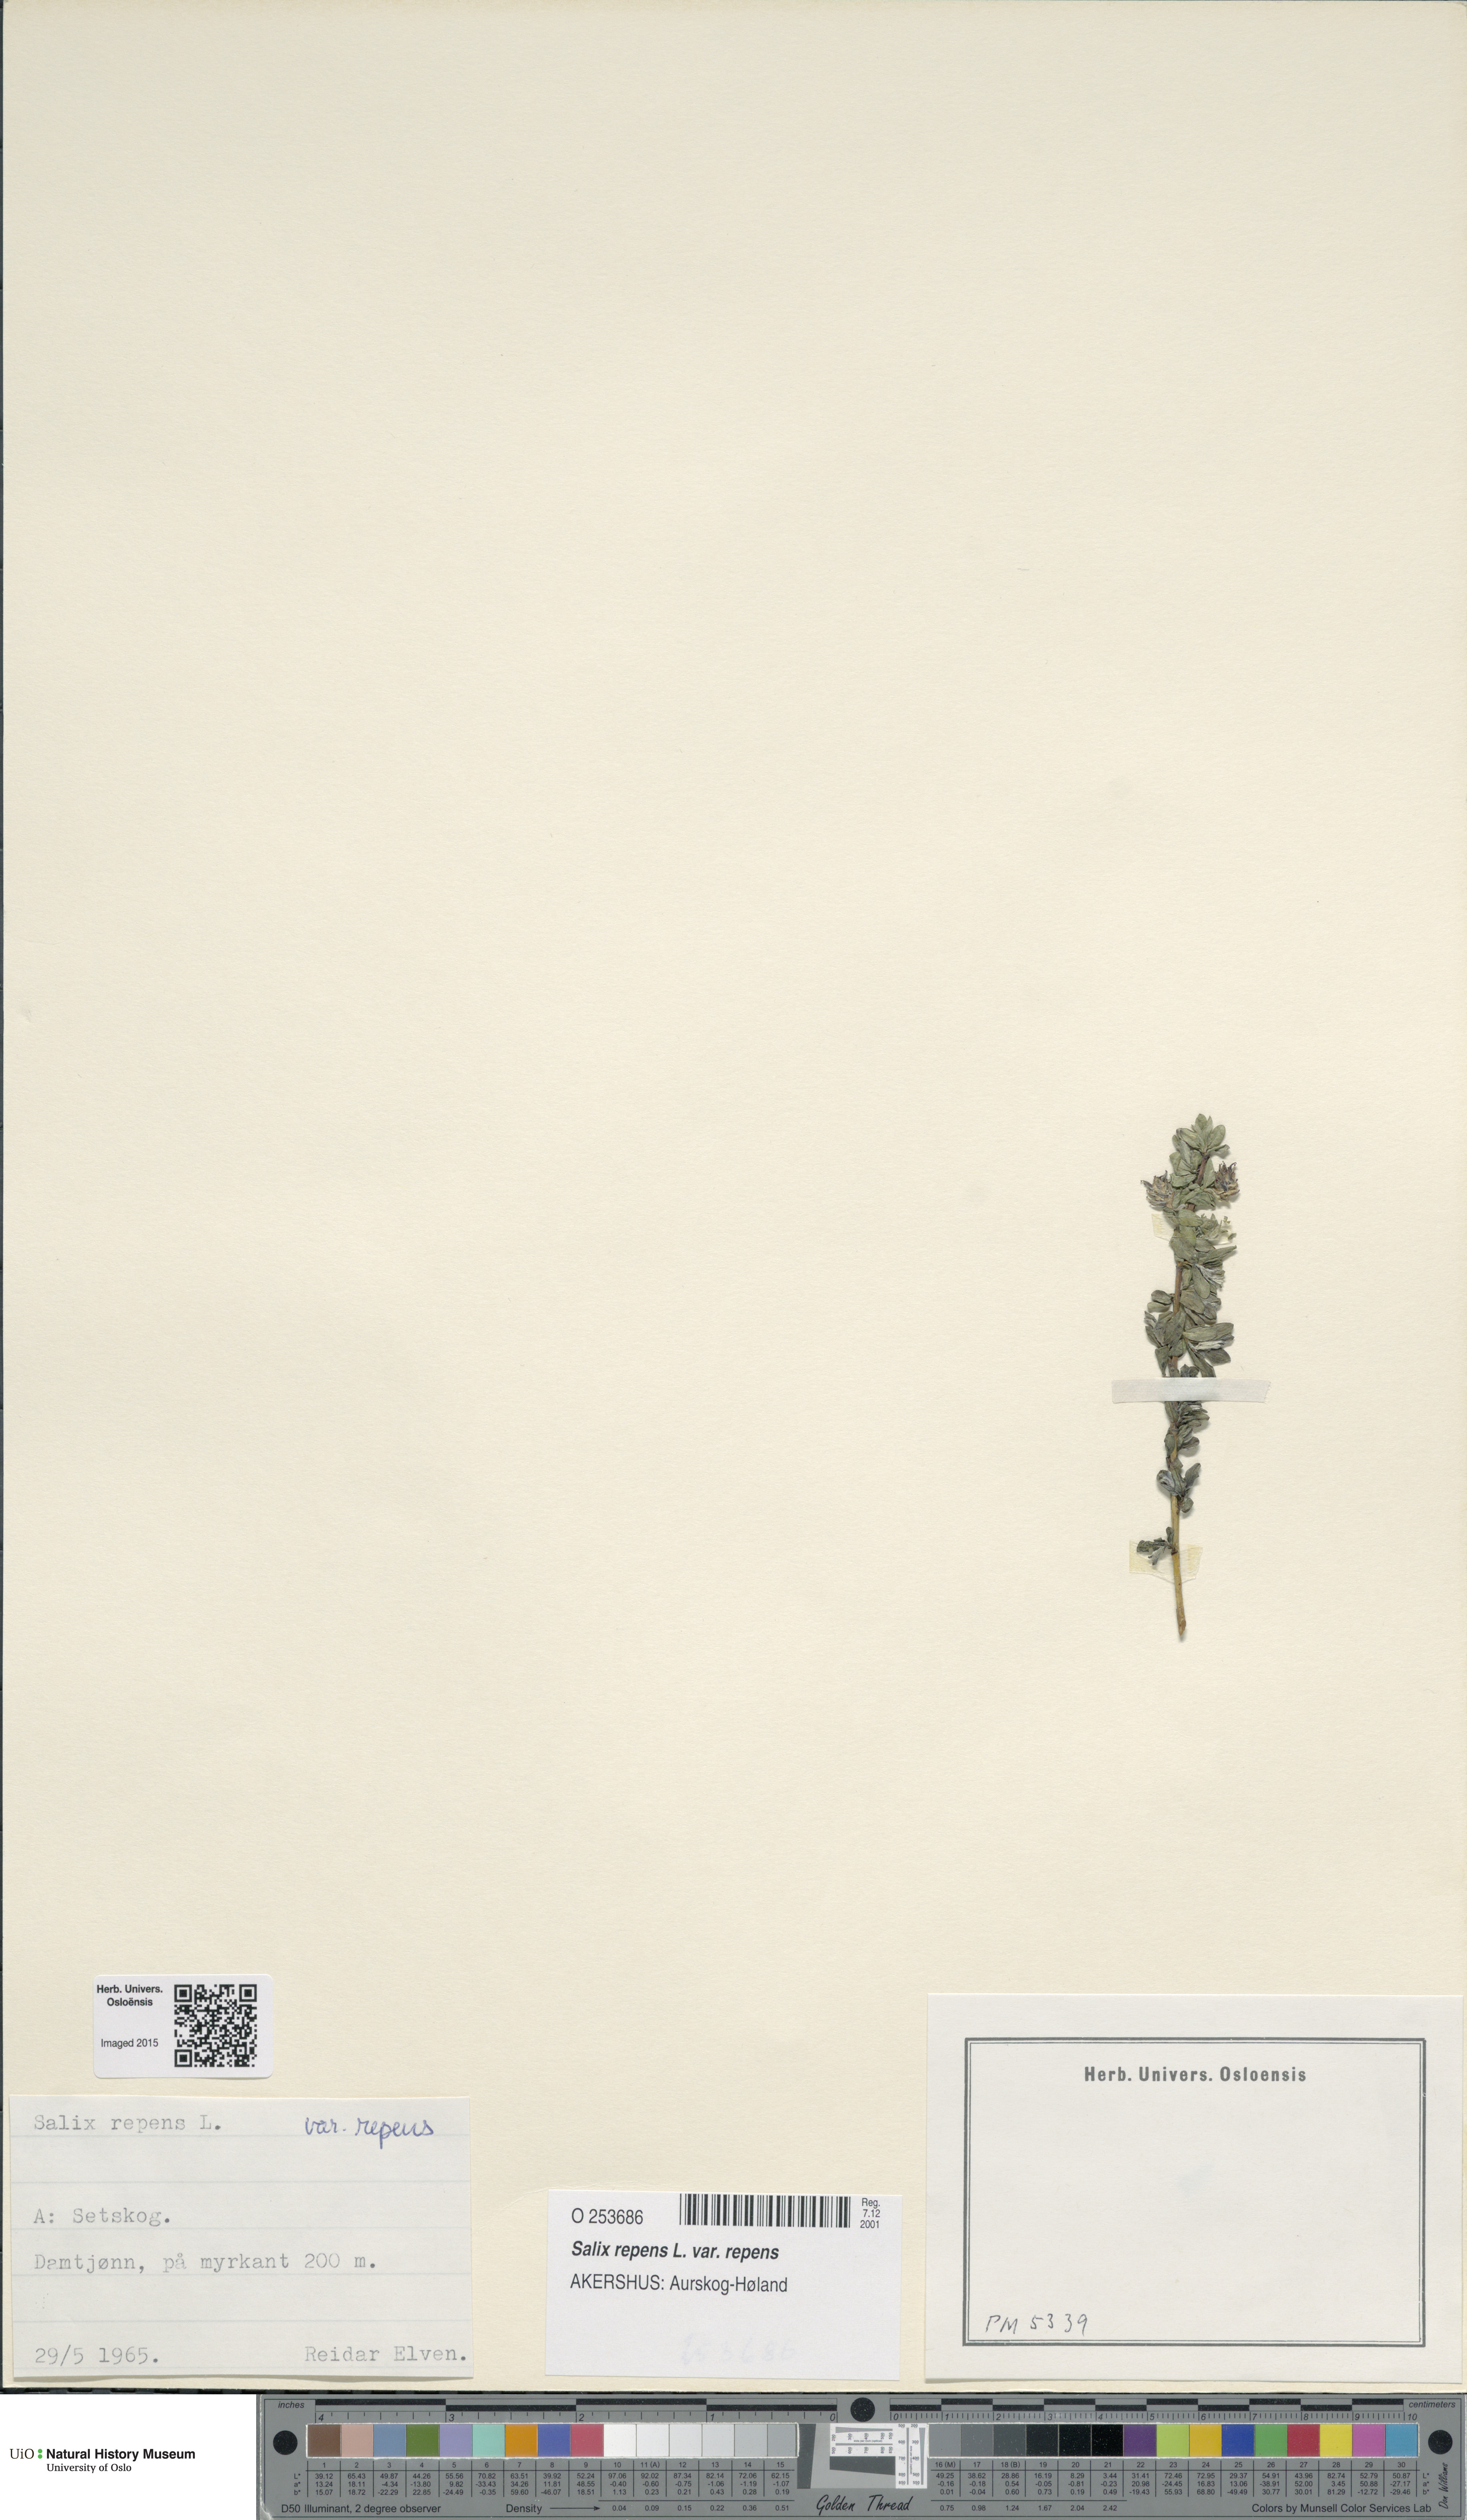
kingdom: Plantae
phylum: Tracheophyta
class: Magnoliopsida
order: Malpighiales
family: Salicaceae
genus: Salix
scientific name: Salix repens
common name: Creeping willow
